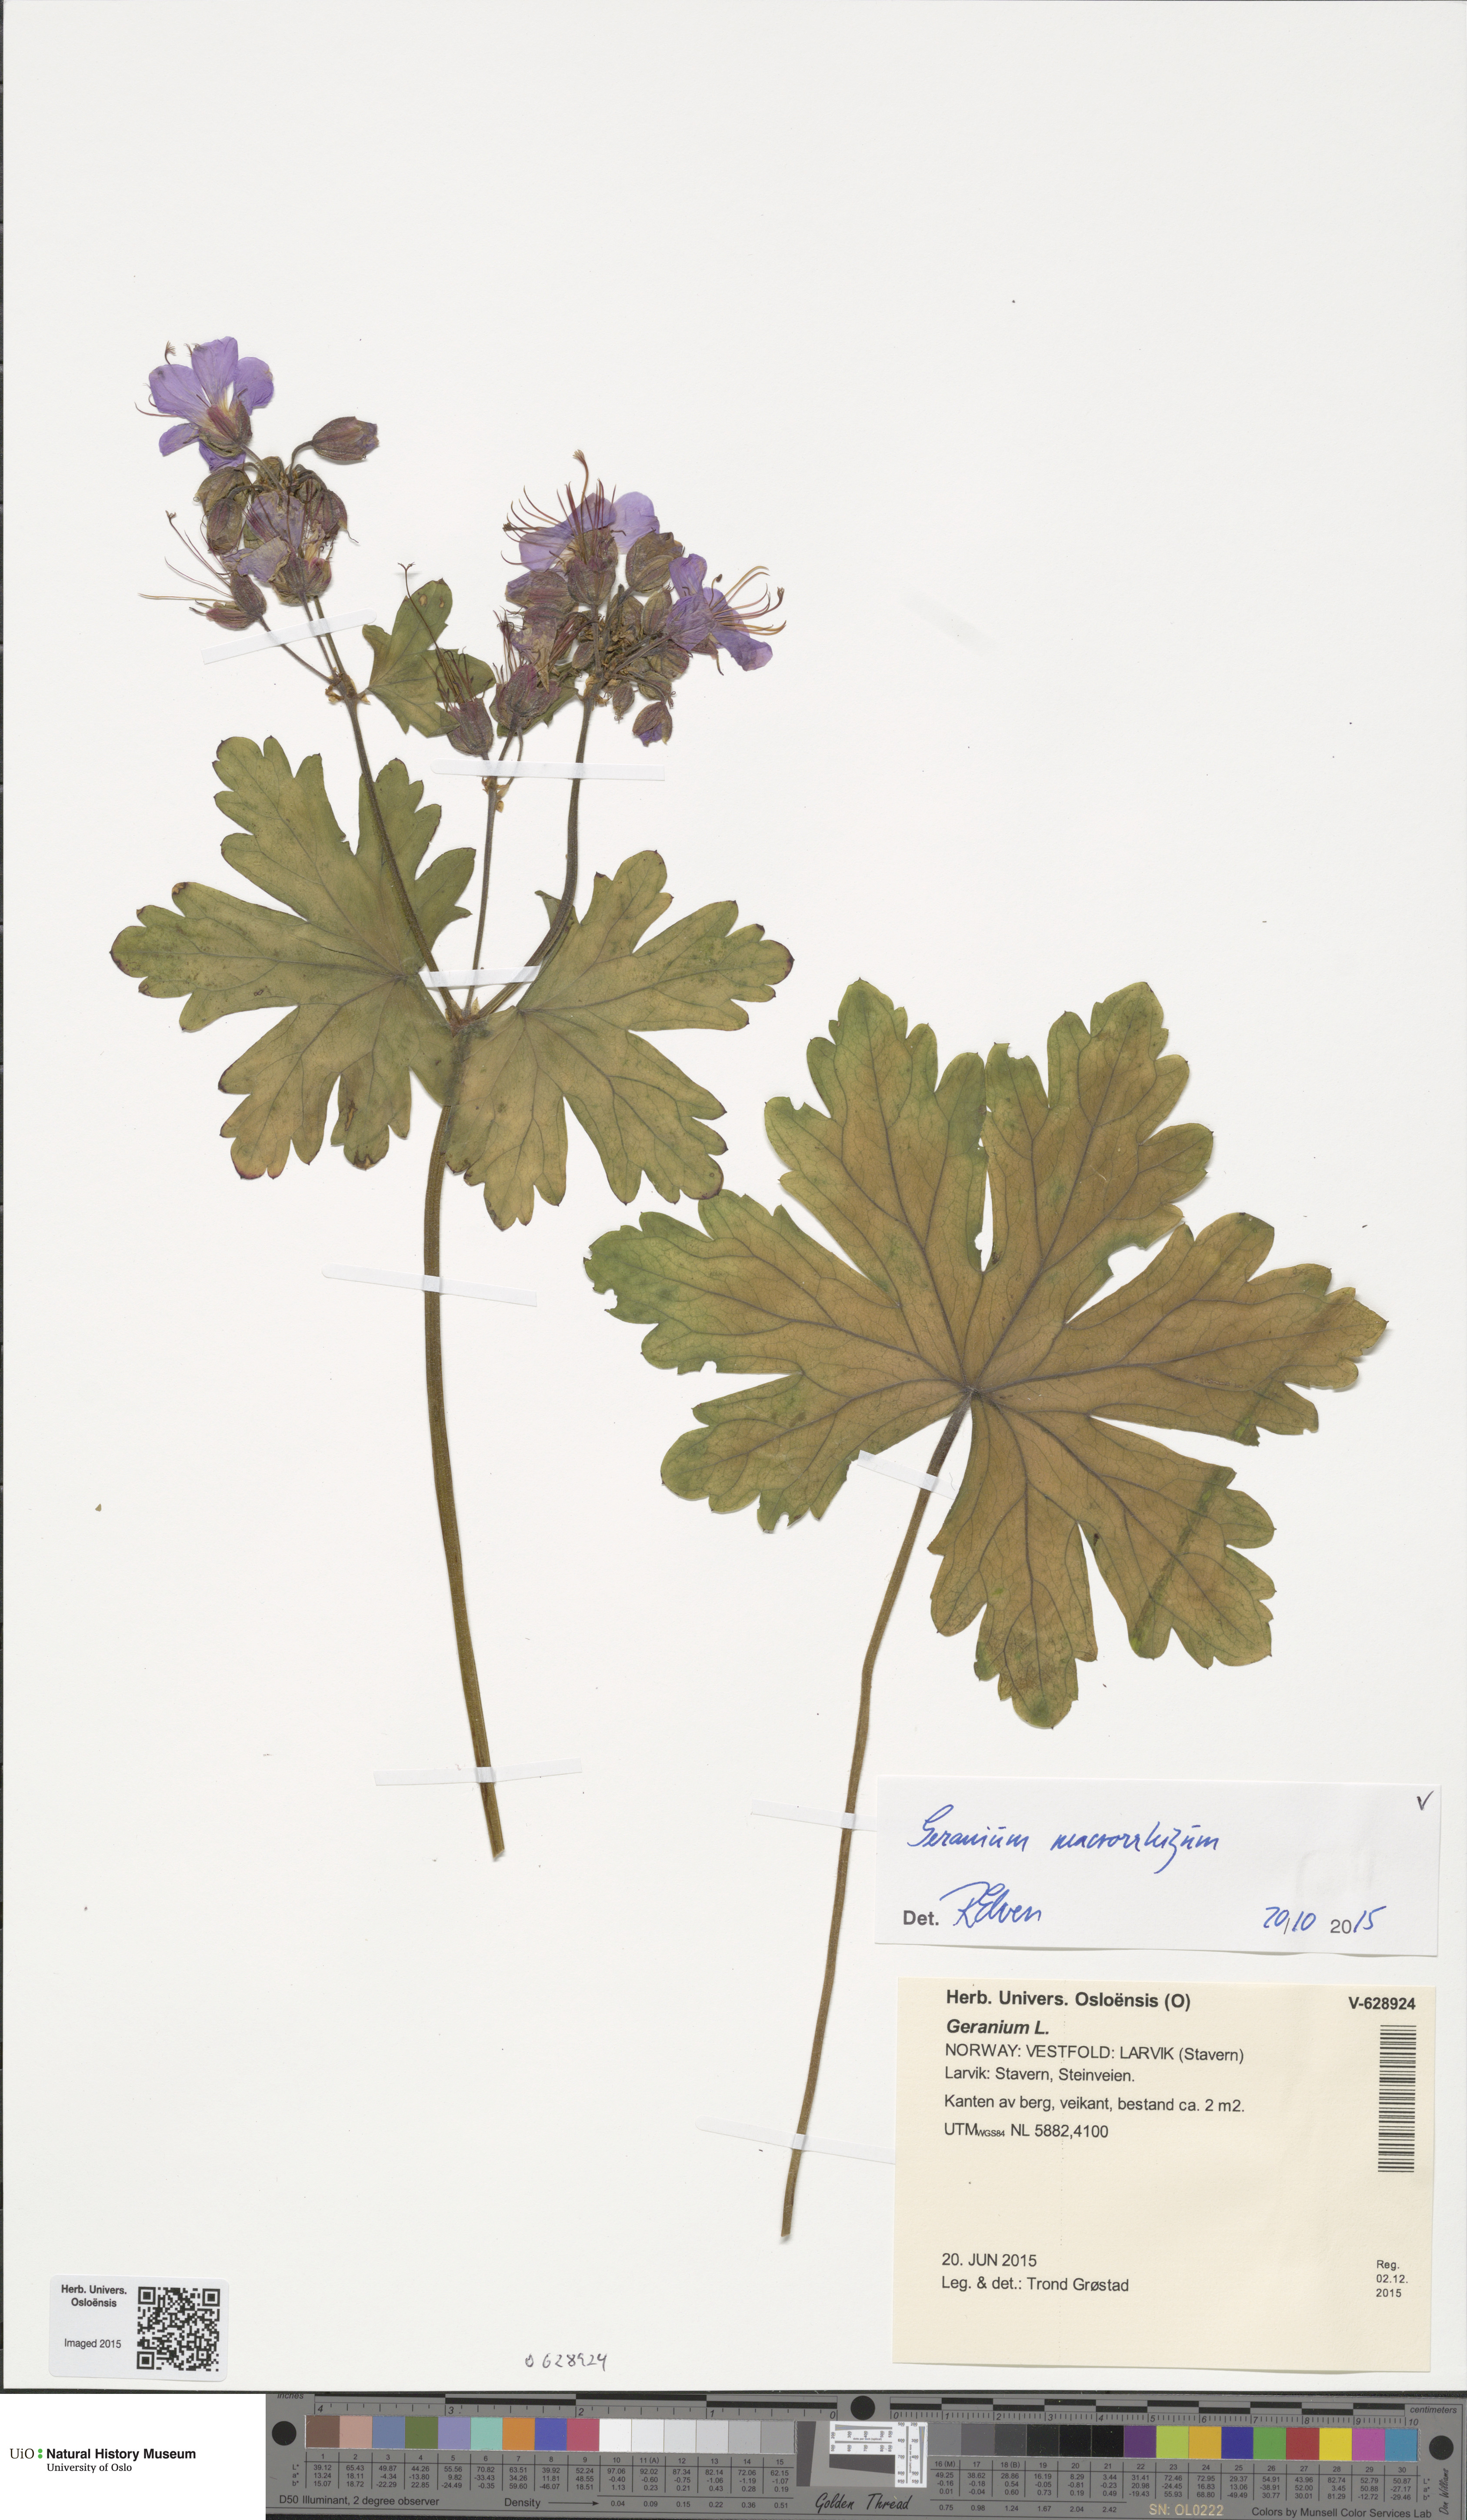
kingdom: Plantae
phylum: Tracheophyta
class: Magnoliopsida
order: Geraniales
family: Geraniaceae
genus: Geranium
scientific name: Geranium macrorrhizum
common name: Rock crane's-bill
